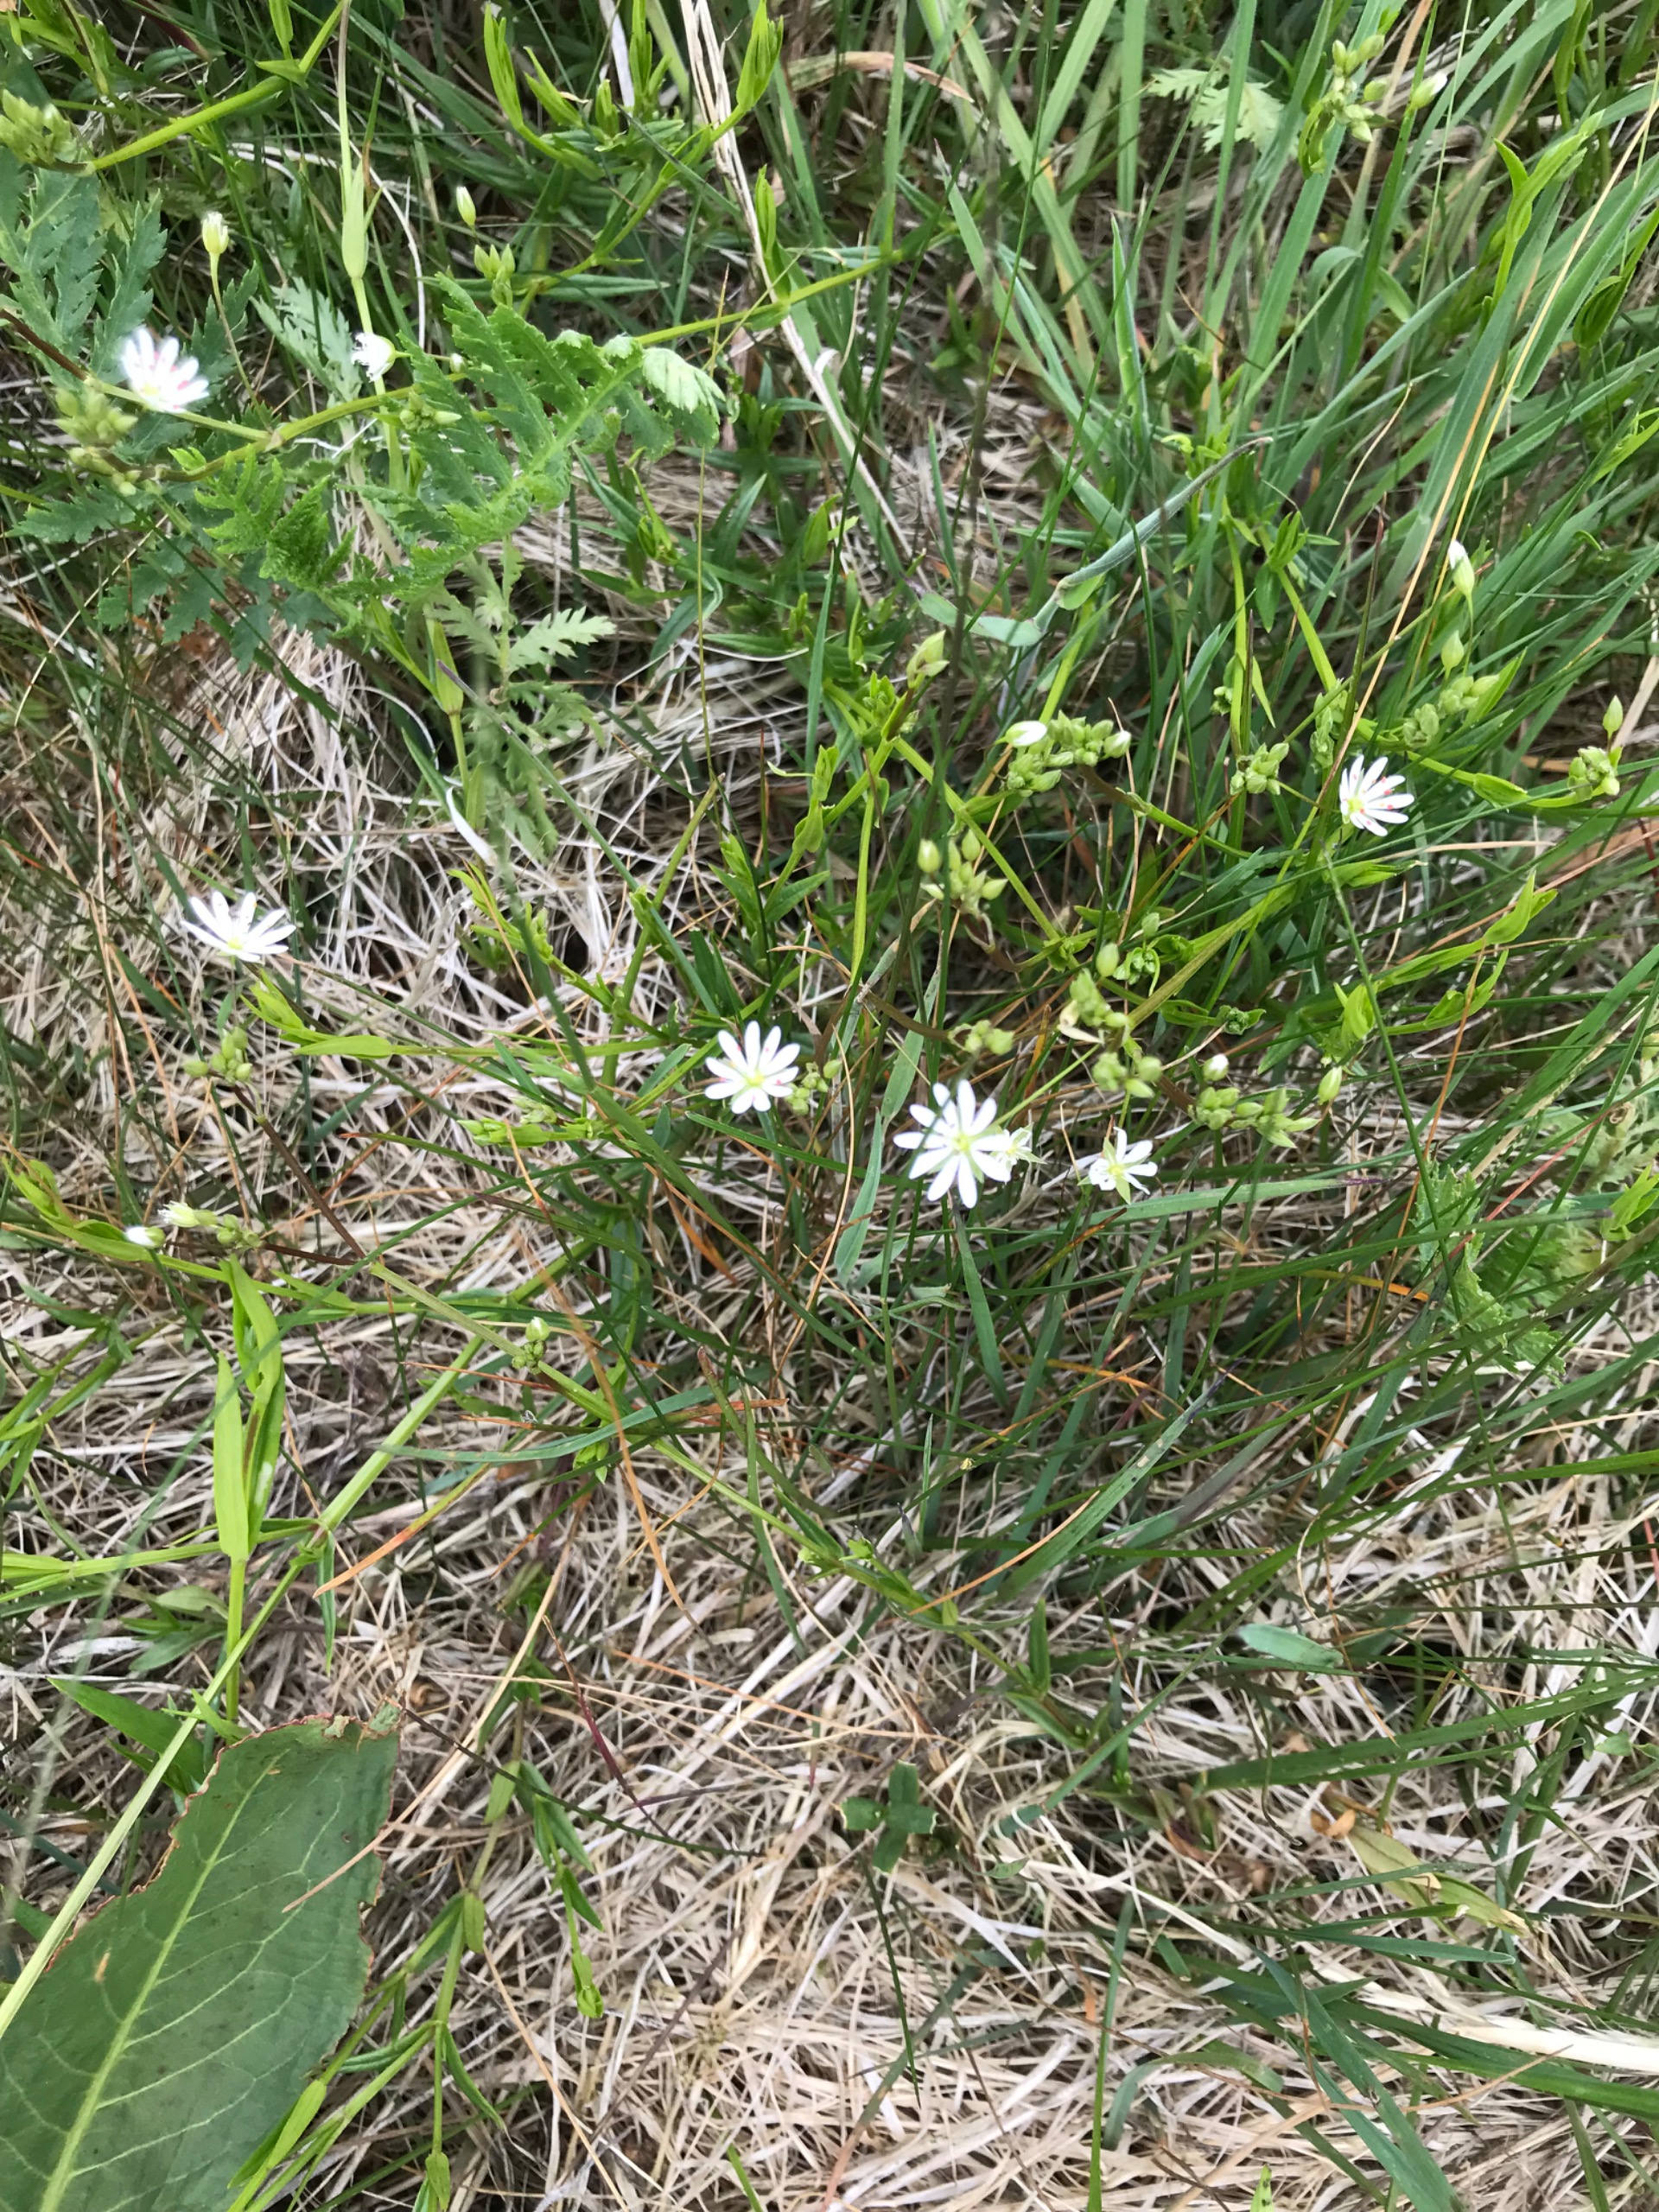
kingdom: Plantae
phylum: Tracheophyta
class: Magnoliopsida
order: Caryophyllales
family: Caryophyllaceae
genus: Stellaria
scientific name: Stellaria graminea
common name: Græsbladet fladstjerne
